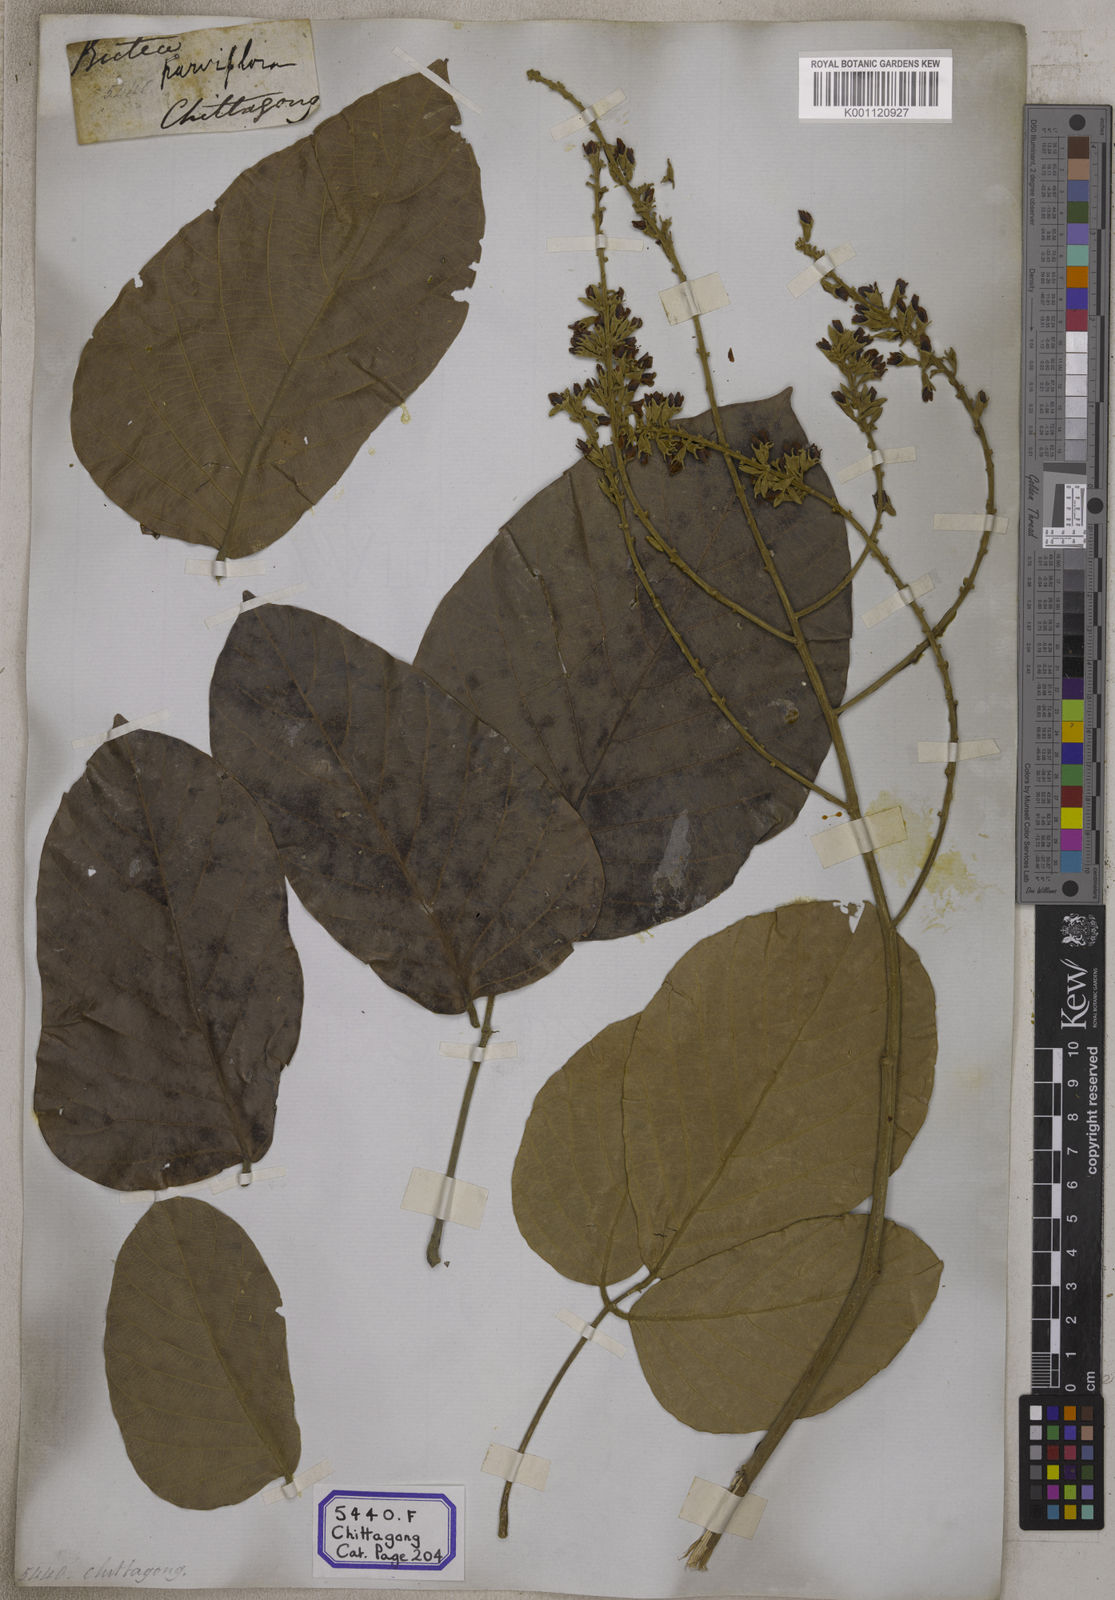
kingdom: Plantae
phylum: Tracheophyta
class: Magnoliopsida
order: Fabales
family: Fabaceae
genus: Butea
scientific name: Butea
